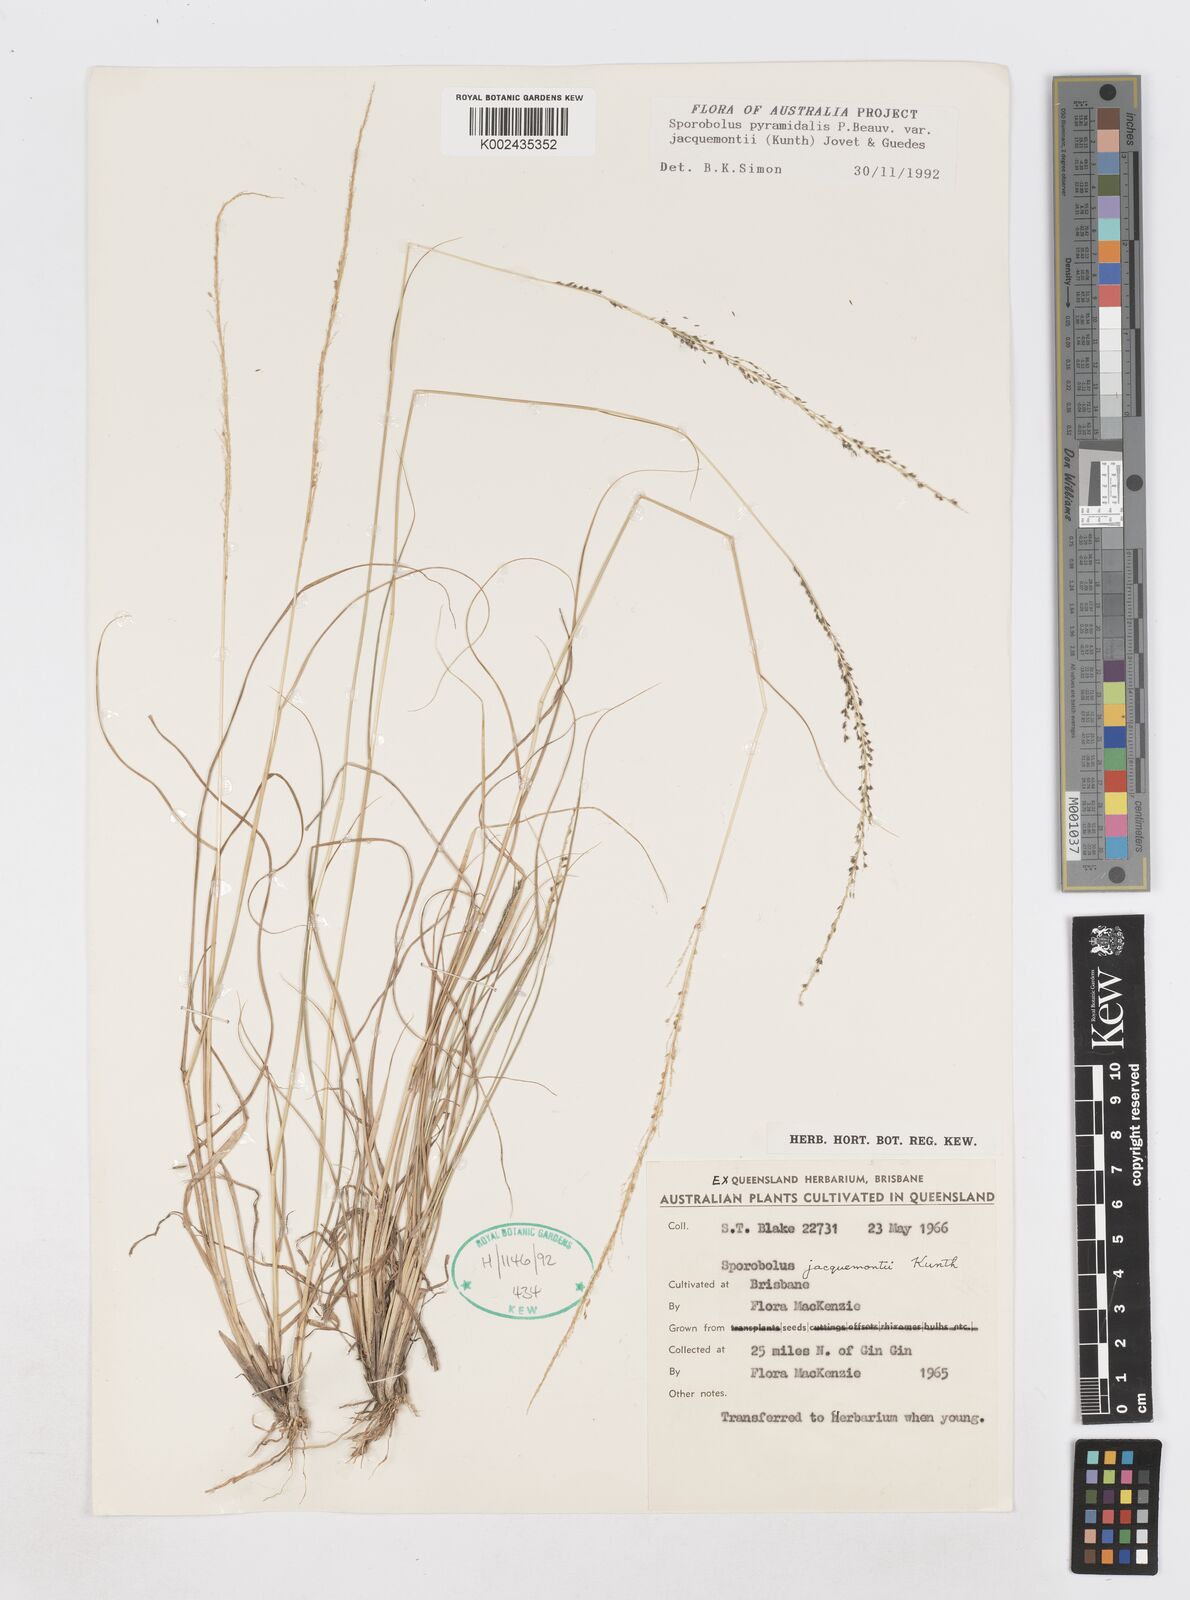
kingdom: Plantae
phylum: Tracheophyta
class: Liliopsida
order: Poales
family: Poaceae
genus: Sporobolus
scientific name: Sporobolus pyramidalis
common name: West indian dropseed
